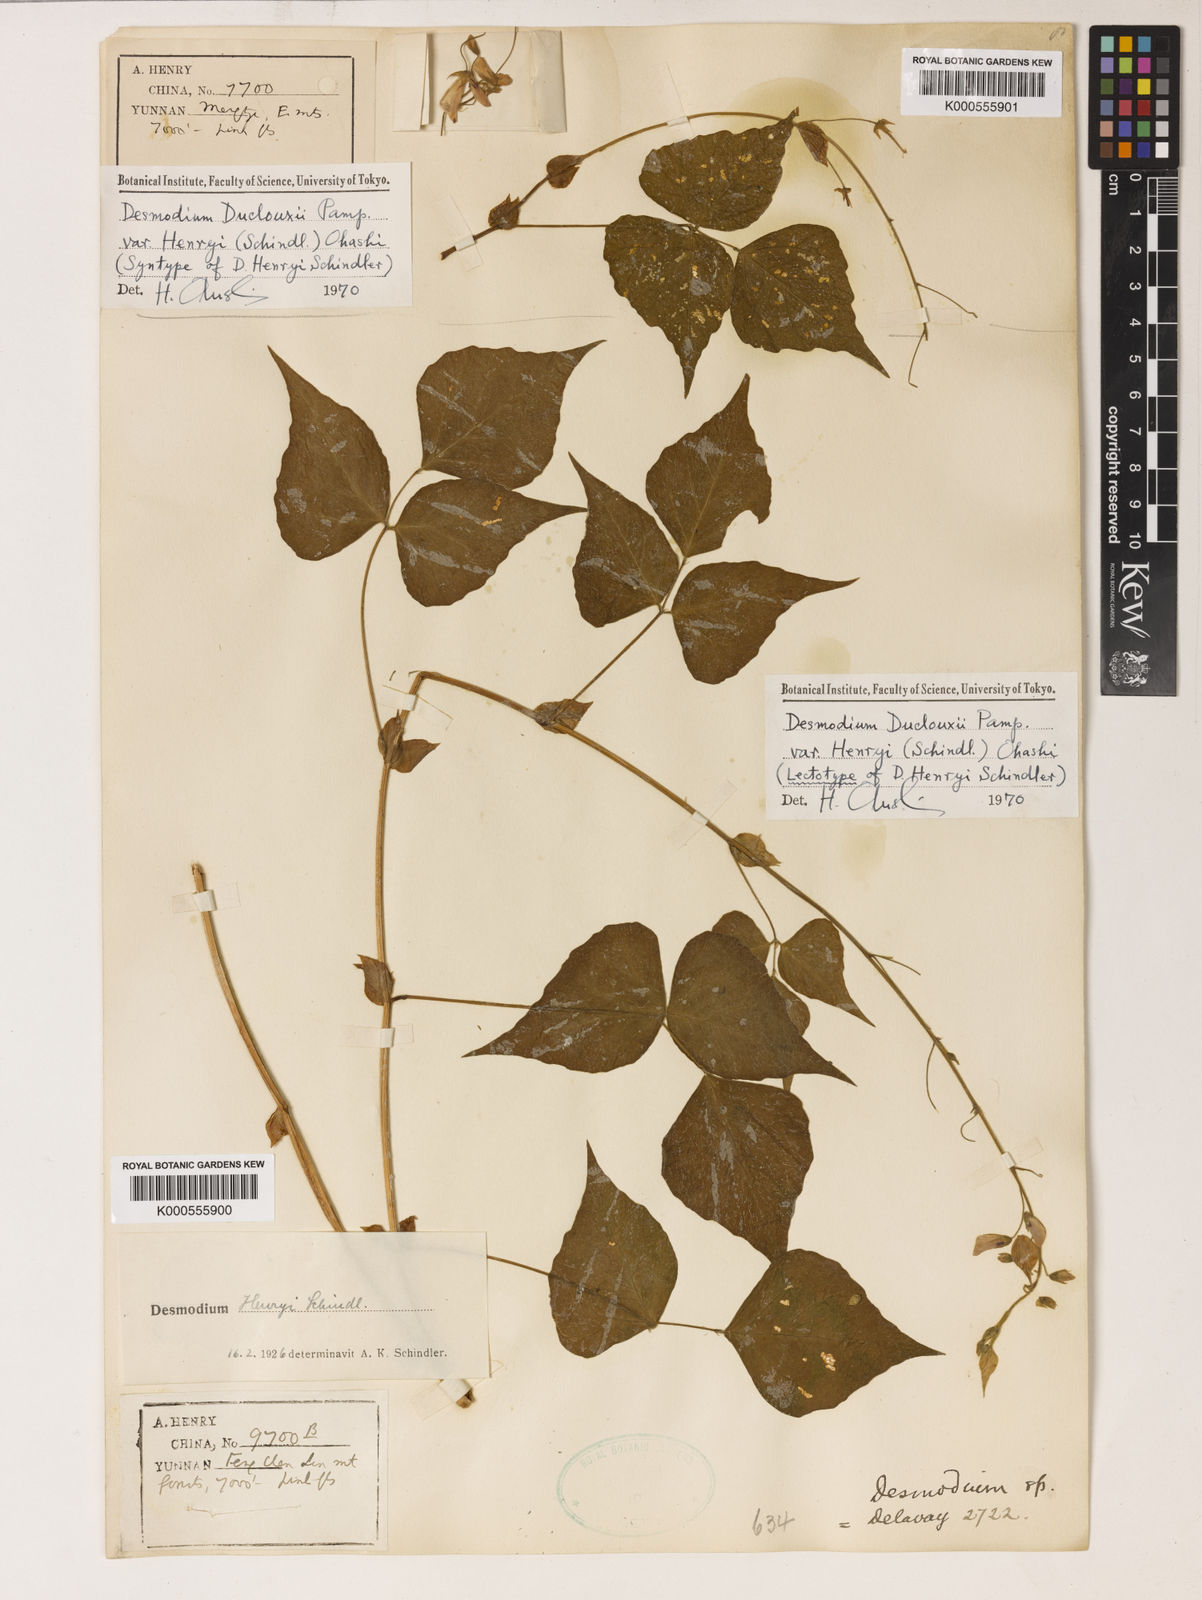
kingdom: Plantae
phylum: Tracheophyta
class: Magnoliopsida
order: Fabales
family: Fabaceae
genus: Hylodesmum
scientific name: Hylodesmum longipes
